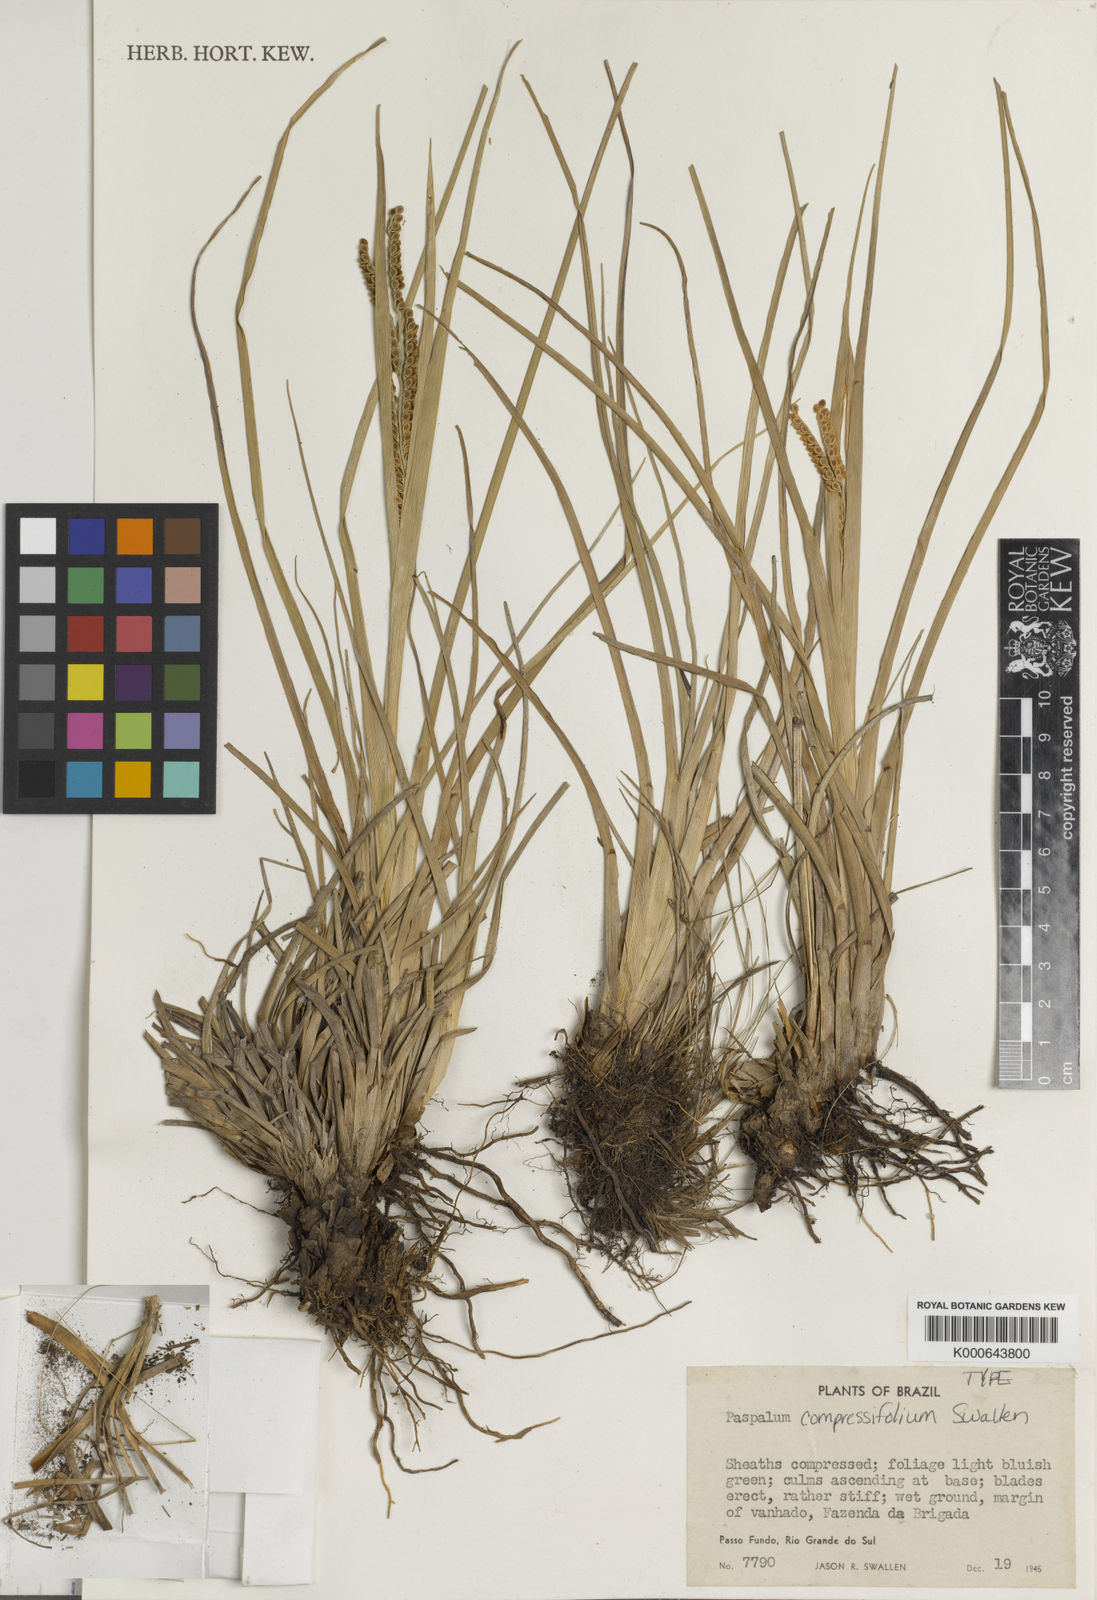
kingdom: Plantae
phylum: Tracheophyta
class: Liliopsida
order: Poales
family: Poaceae
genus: Paspalum
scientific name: Paspalum plicatulum
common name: Top paspalum
